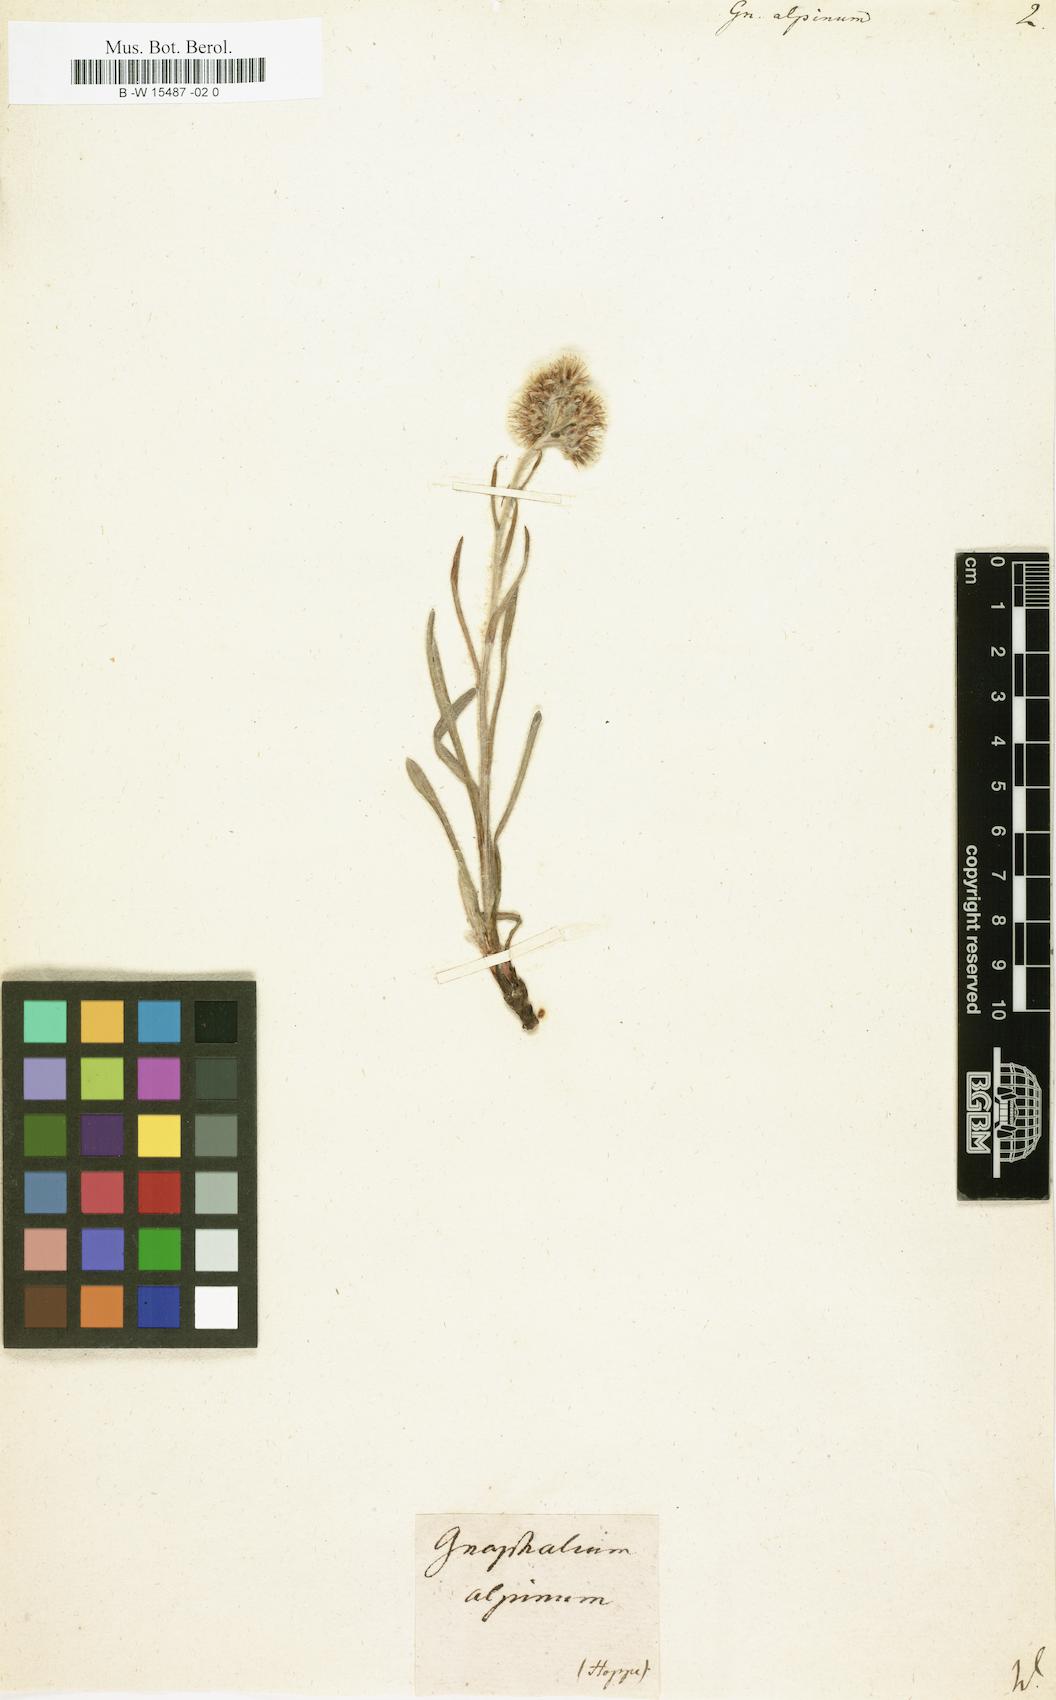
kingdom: Plantae
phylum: Tracheophyta
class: Magnoliopsida
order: Asterales
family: Asteraceae
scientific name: Asteraceae
